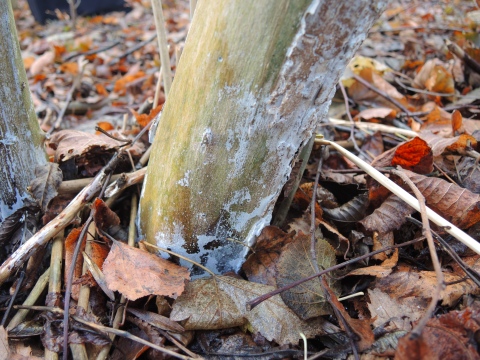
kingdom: Fungi
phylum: Basidiomycota
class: Agaricomycetes
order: Corticiales
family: Corticiaceae
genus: Lyomyces
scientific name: Lyomyces sambuci
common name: almindelig hyldehinde
